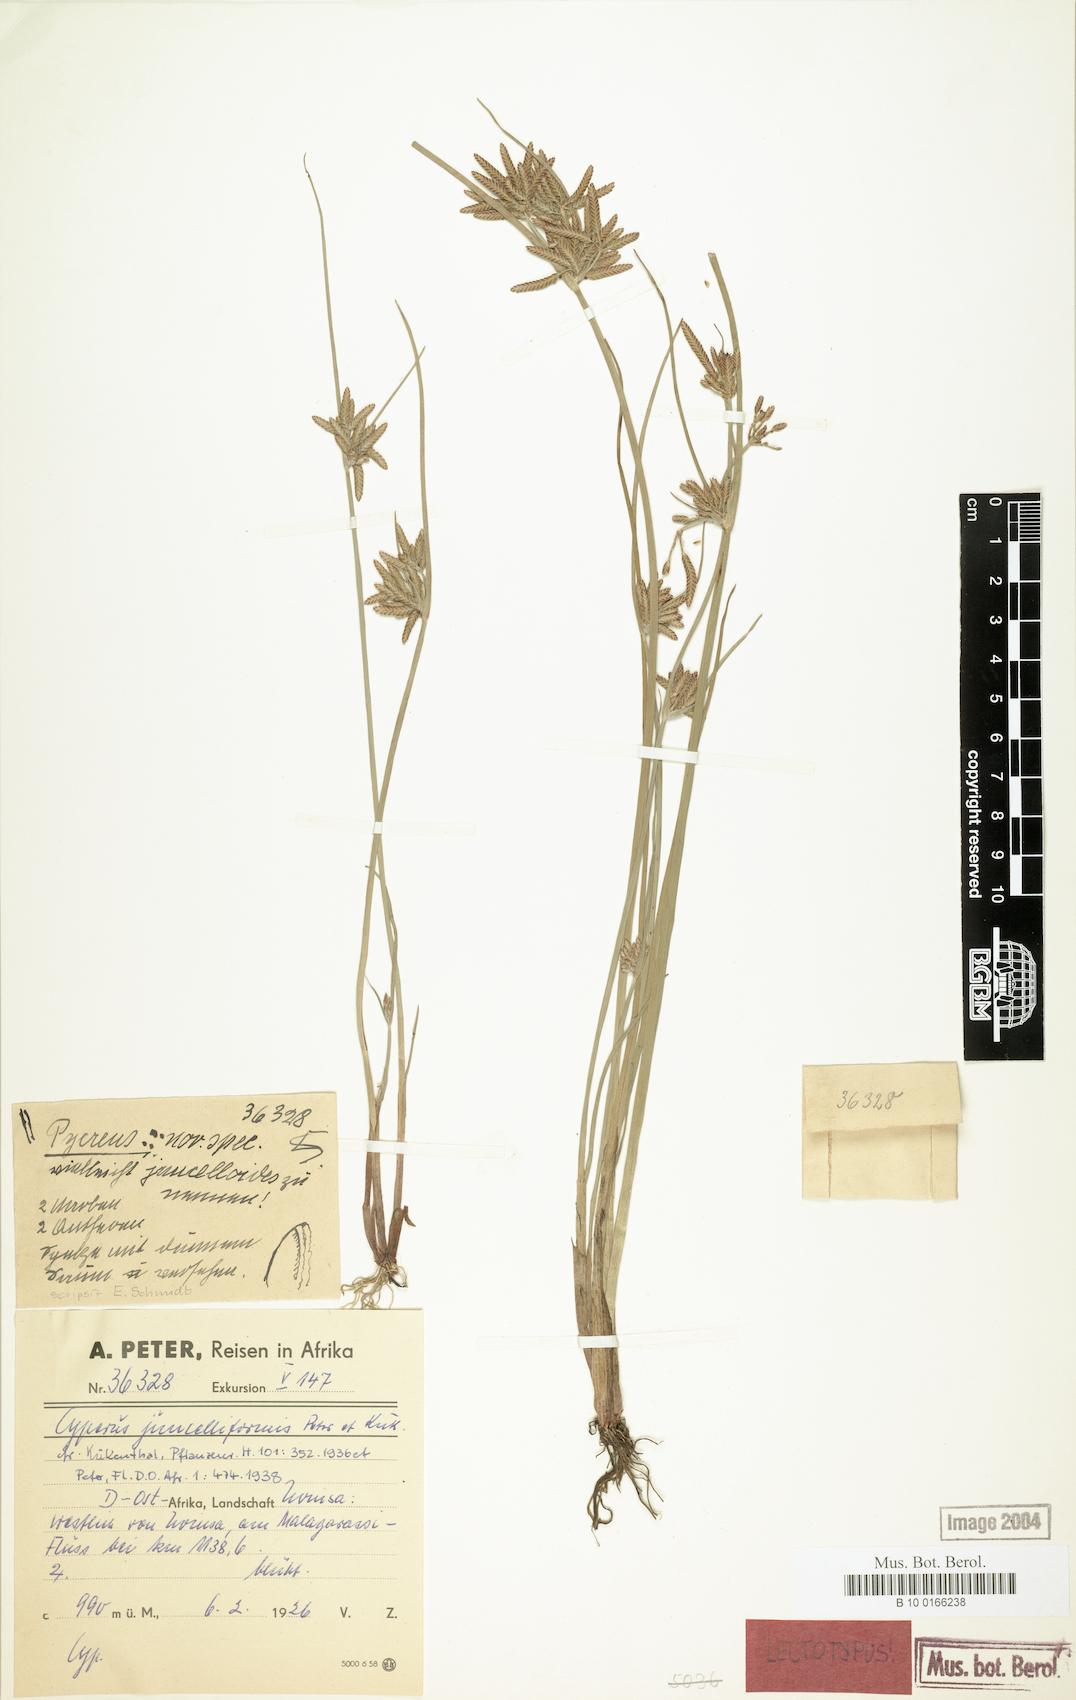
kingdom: Plantae
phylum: Tracheophyta
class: Liliopsida
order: Poales
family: Cyperaceae
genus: Cyperus
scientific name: Cyperus juncelliformis
